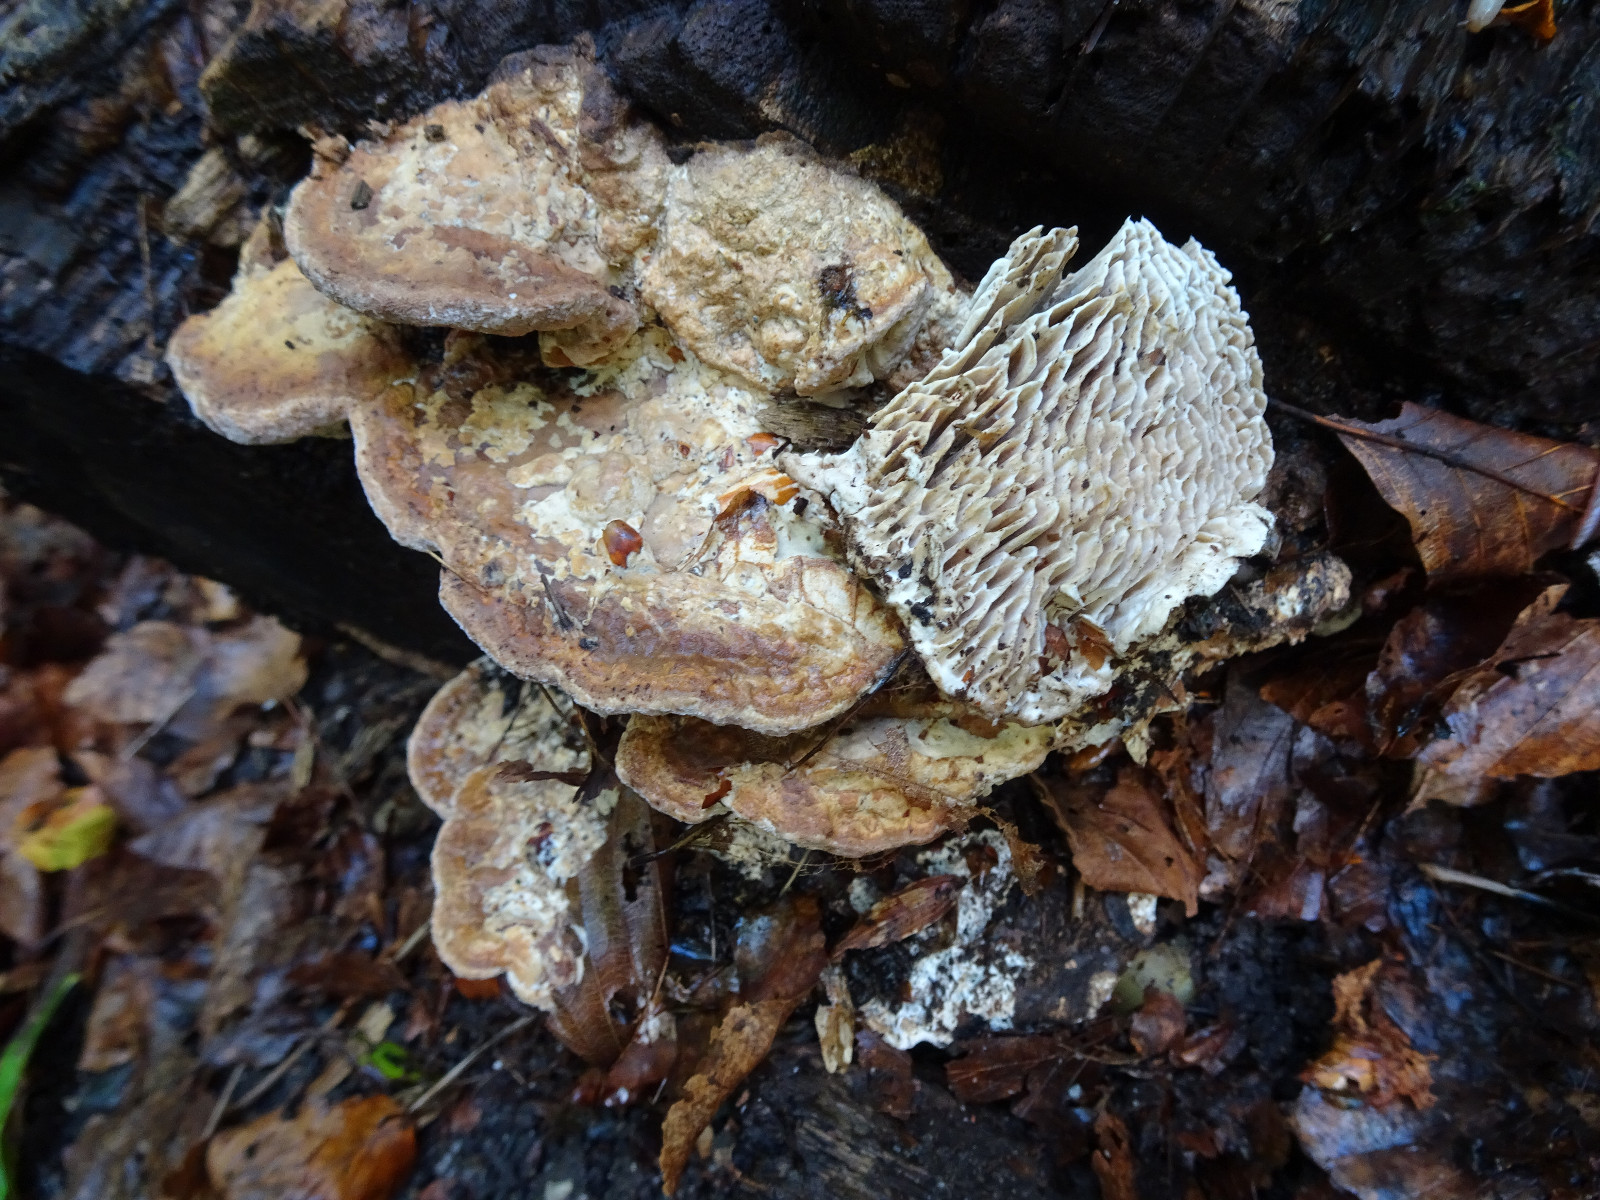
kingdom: Fungi
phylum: Basidiomycota
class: Agaricomycetes
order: Polyporales
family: Fomitopsidaceae
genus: Daedalea
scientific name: Daedalea quercina
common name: ege-labyrintsvamp
